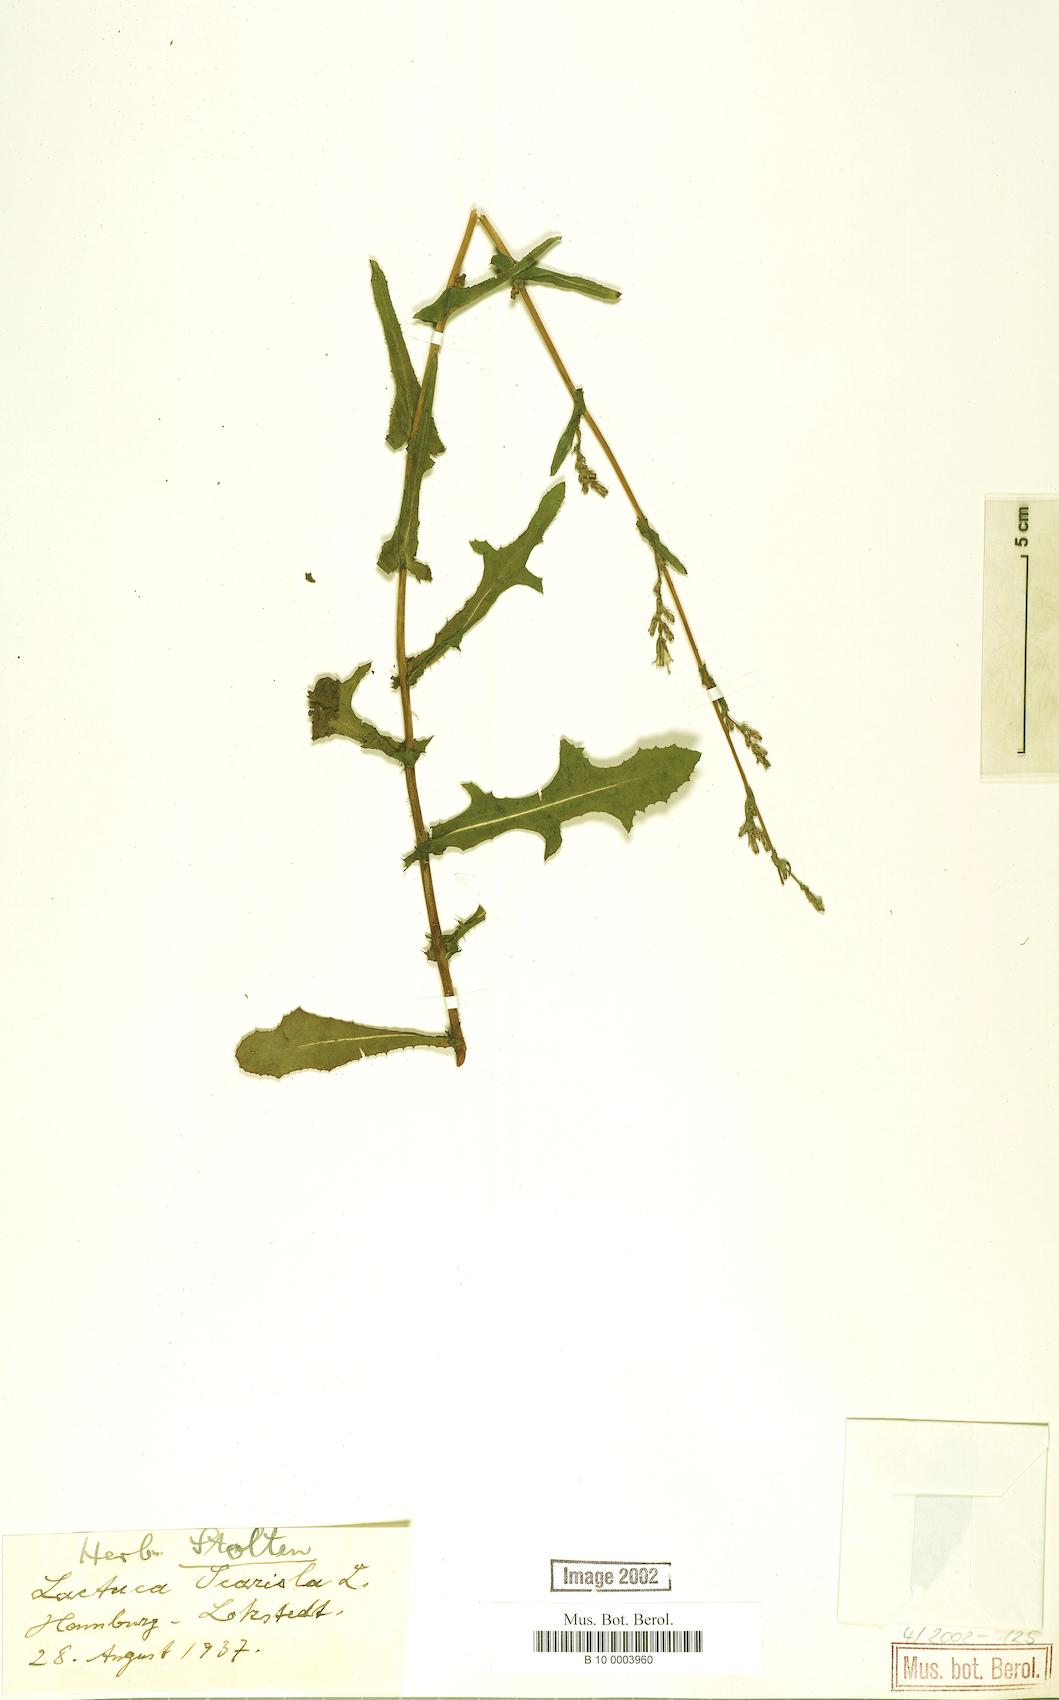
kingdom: Plantae
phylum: Tracheophyta
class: Magnoliopsida
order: Asterales
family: Asteraceae
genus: Lactuca
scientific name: Lactuca serriola
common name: Prickly lettuce
